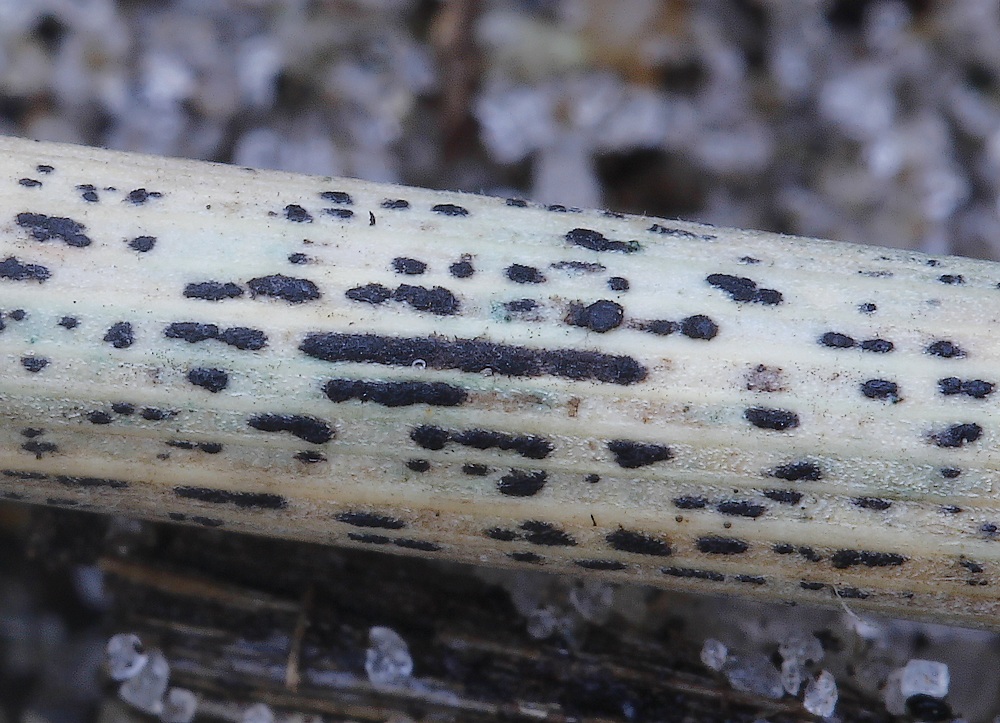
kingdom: Fungi
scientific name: Fungi
